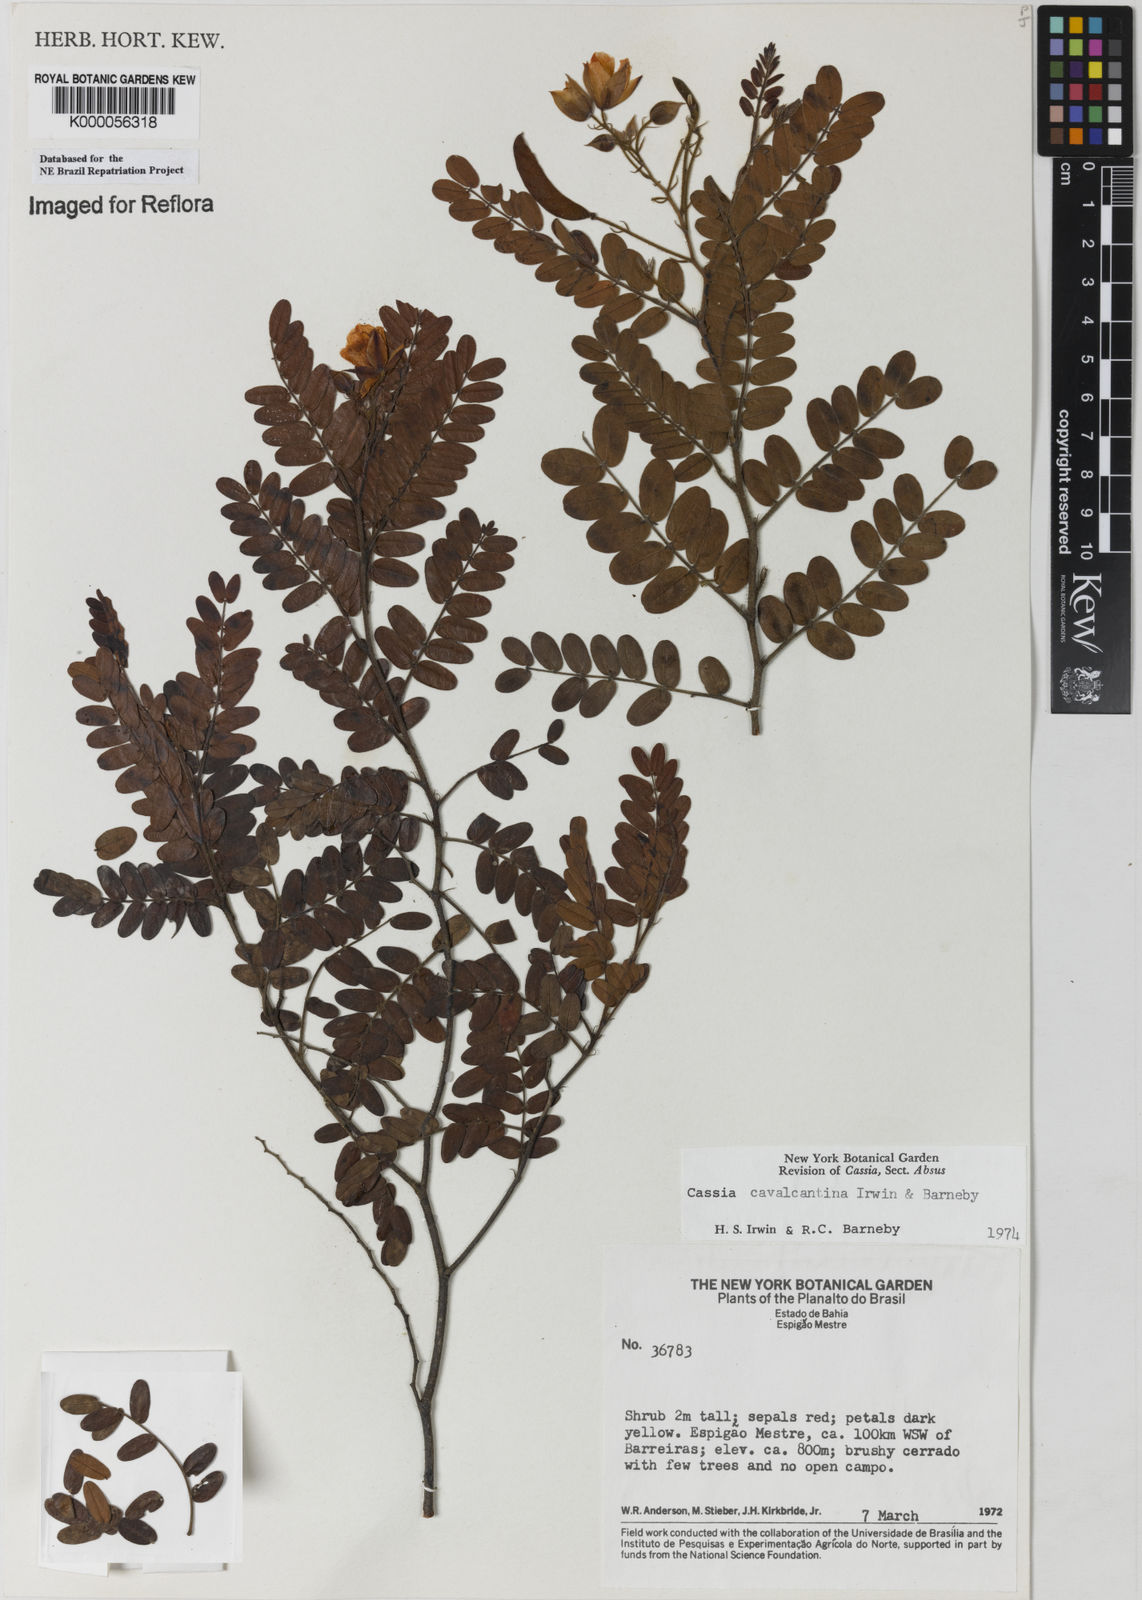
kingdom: Plantae
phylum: Tracheophyta
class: Magnoliopsida
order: Fabales
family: Fabaceae
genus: Chamaecrista
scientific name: Chamaecrista cavalcantina
